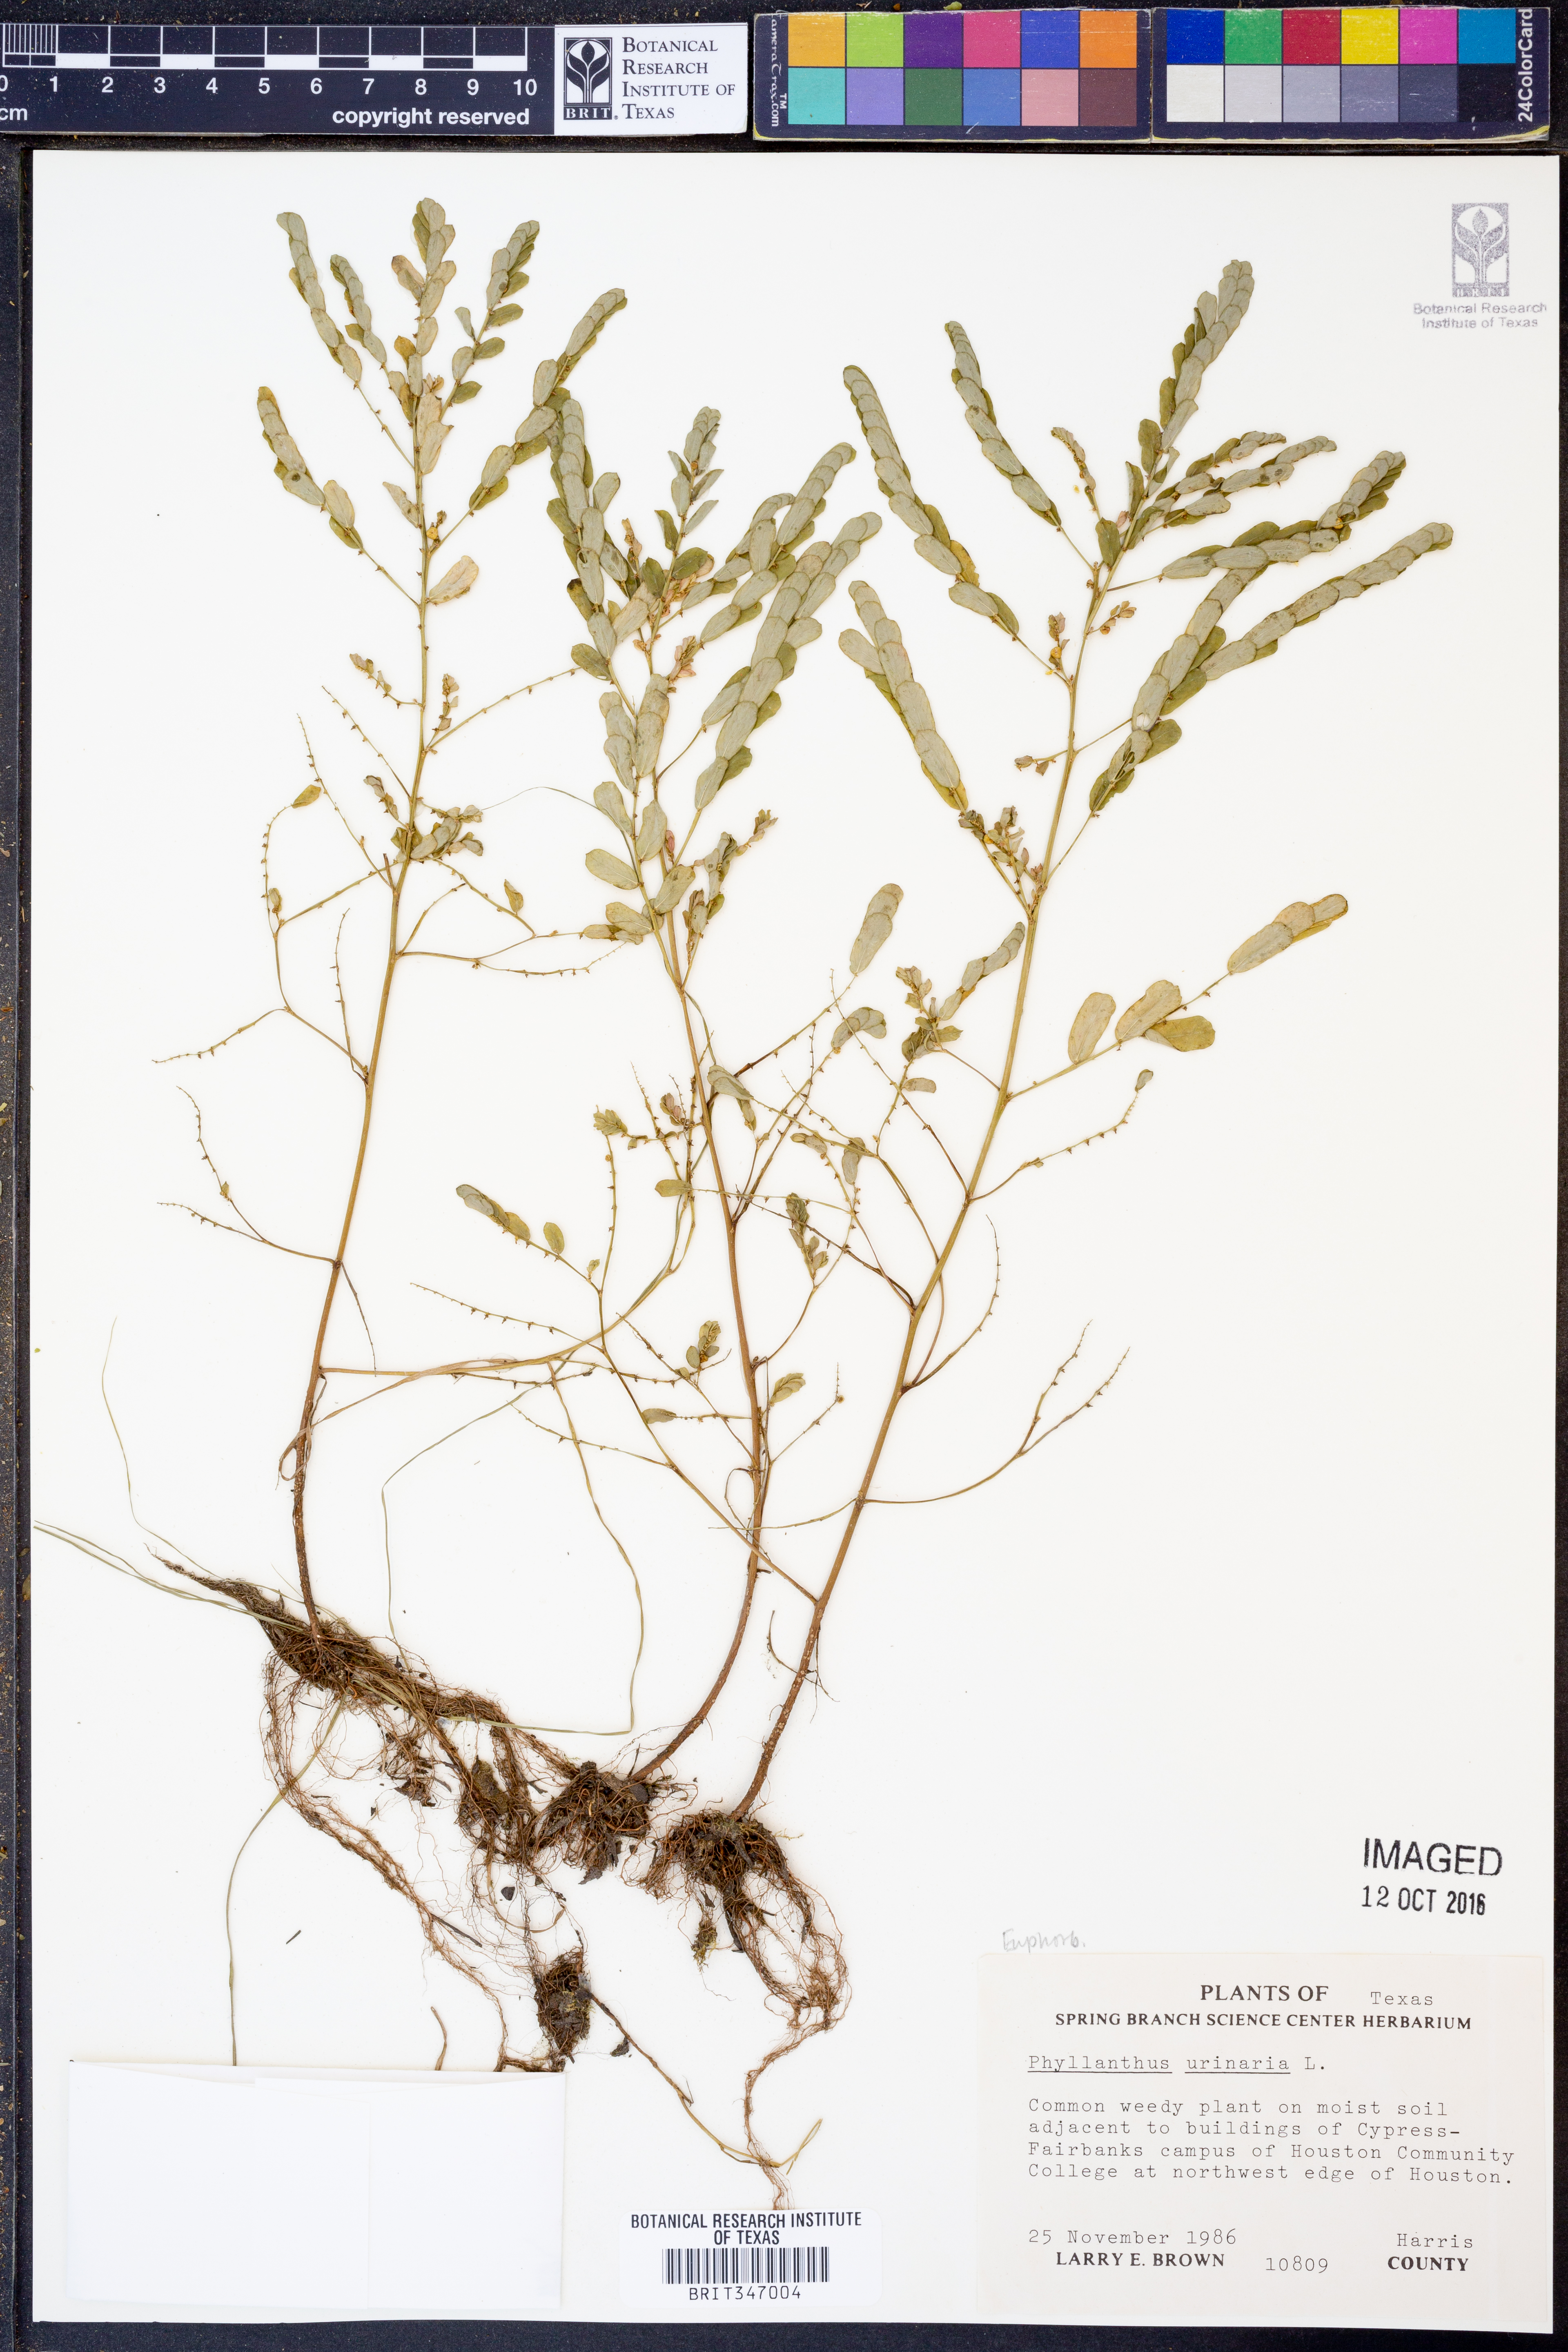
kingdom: Plantae
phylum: Tracheophyta
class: Magnoliopsida
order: Malpighiales
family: Phyllanthaceae
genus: Phyllanthus
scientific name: Phyllanthus urinaria
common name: Chamber bitter
